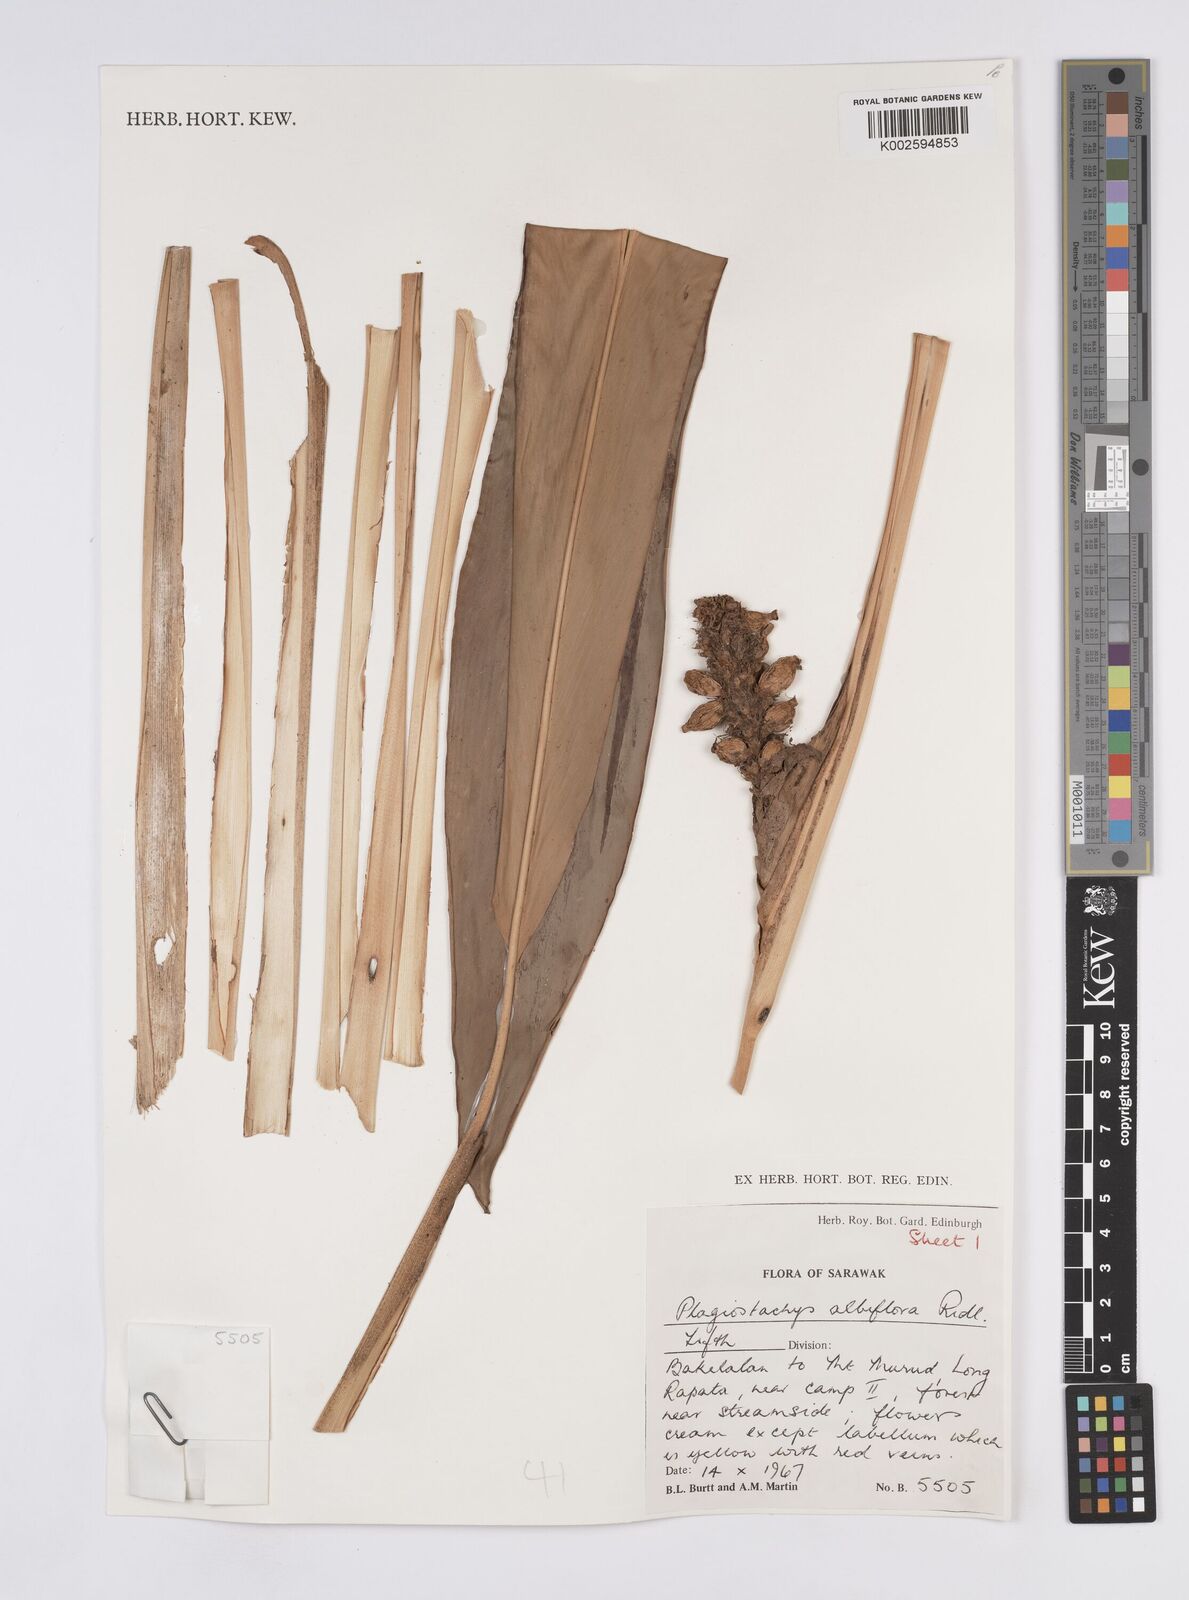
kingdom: Plantae
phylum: Tracheophyta
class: Liliopsida
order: Zingiberales
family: Zingiberaceae
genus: Plagiostachys
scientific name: Plagiostachys albiflora
